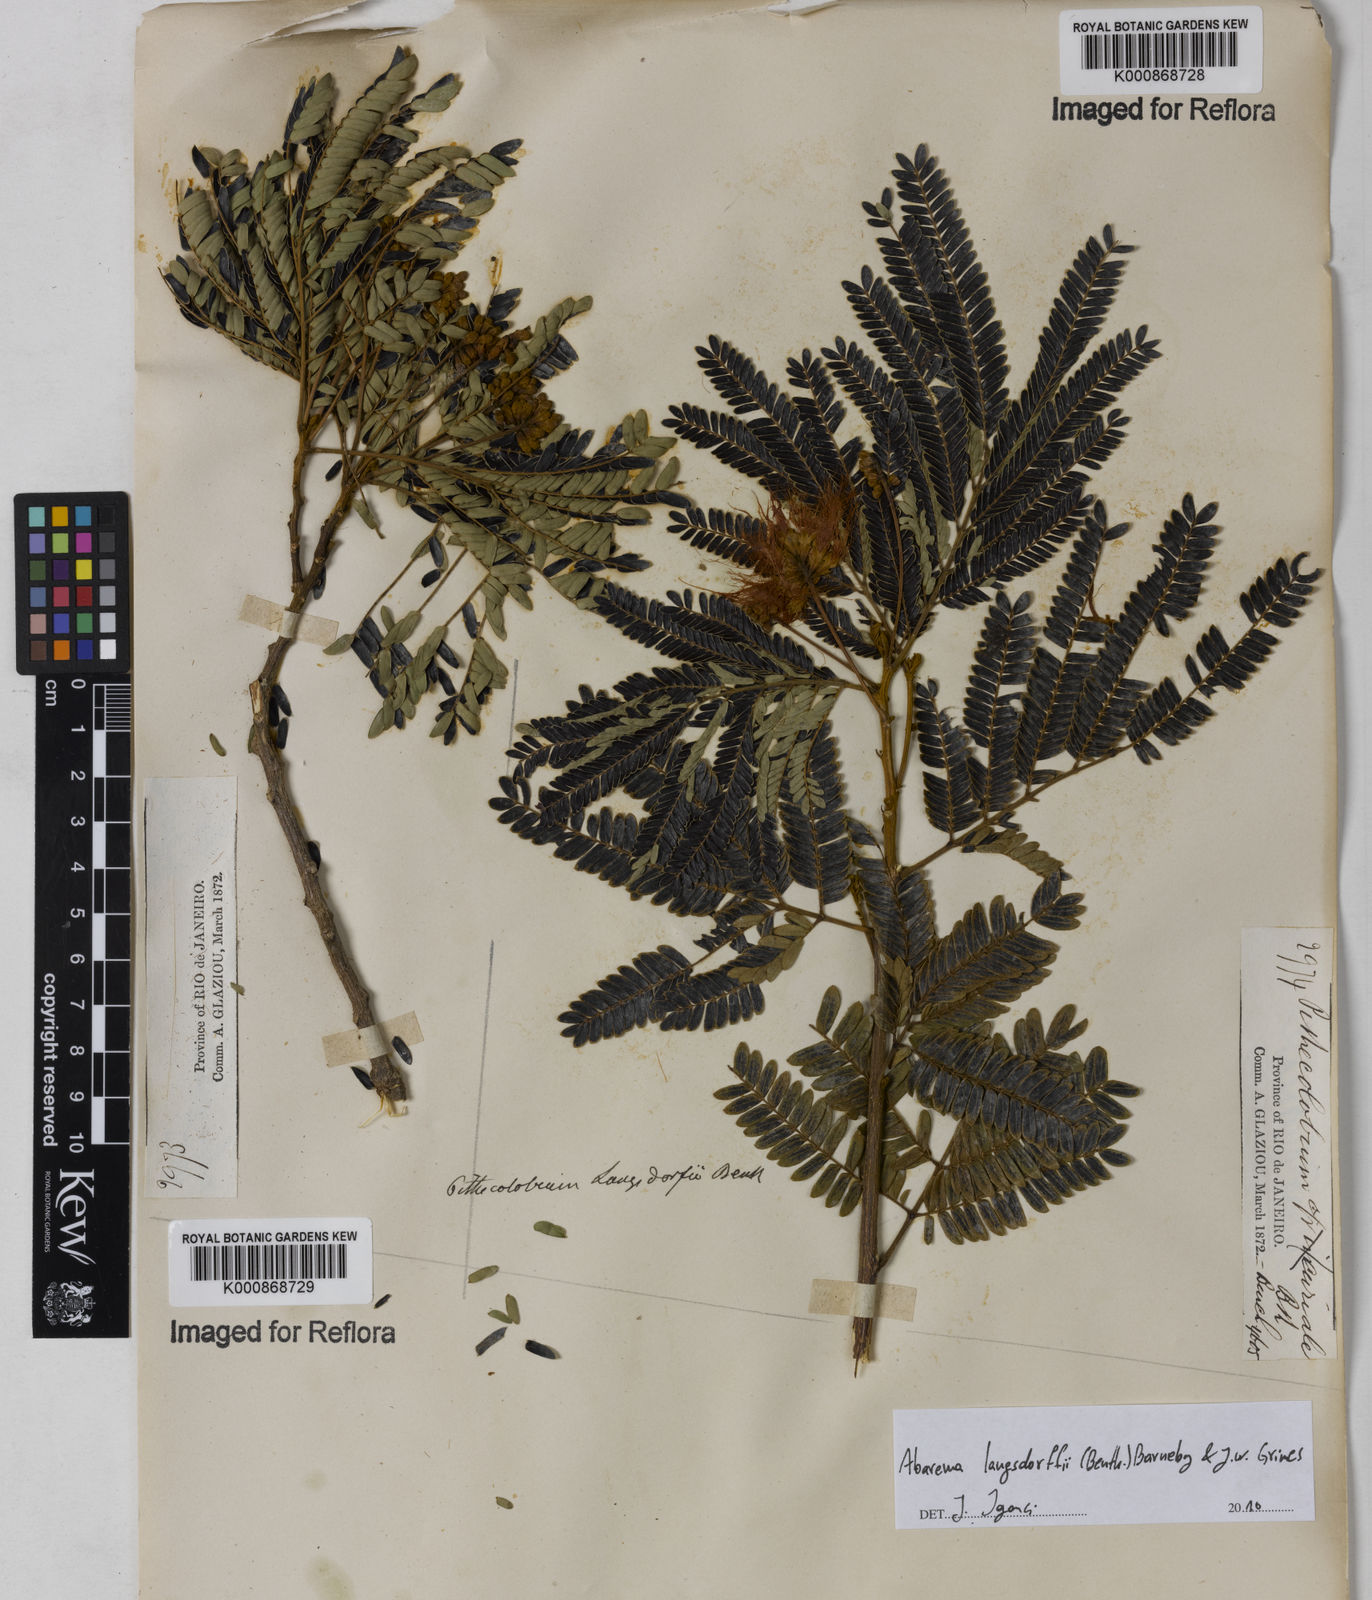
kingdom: Plantae
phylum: Tracheophyta
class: Magnoliopsida
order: Fabales
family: Fabaceae
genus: Jupunba
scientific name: Jupunba langsdorffii
